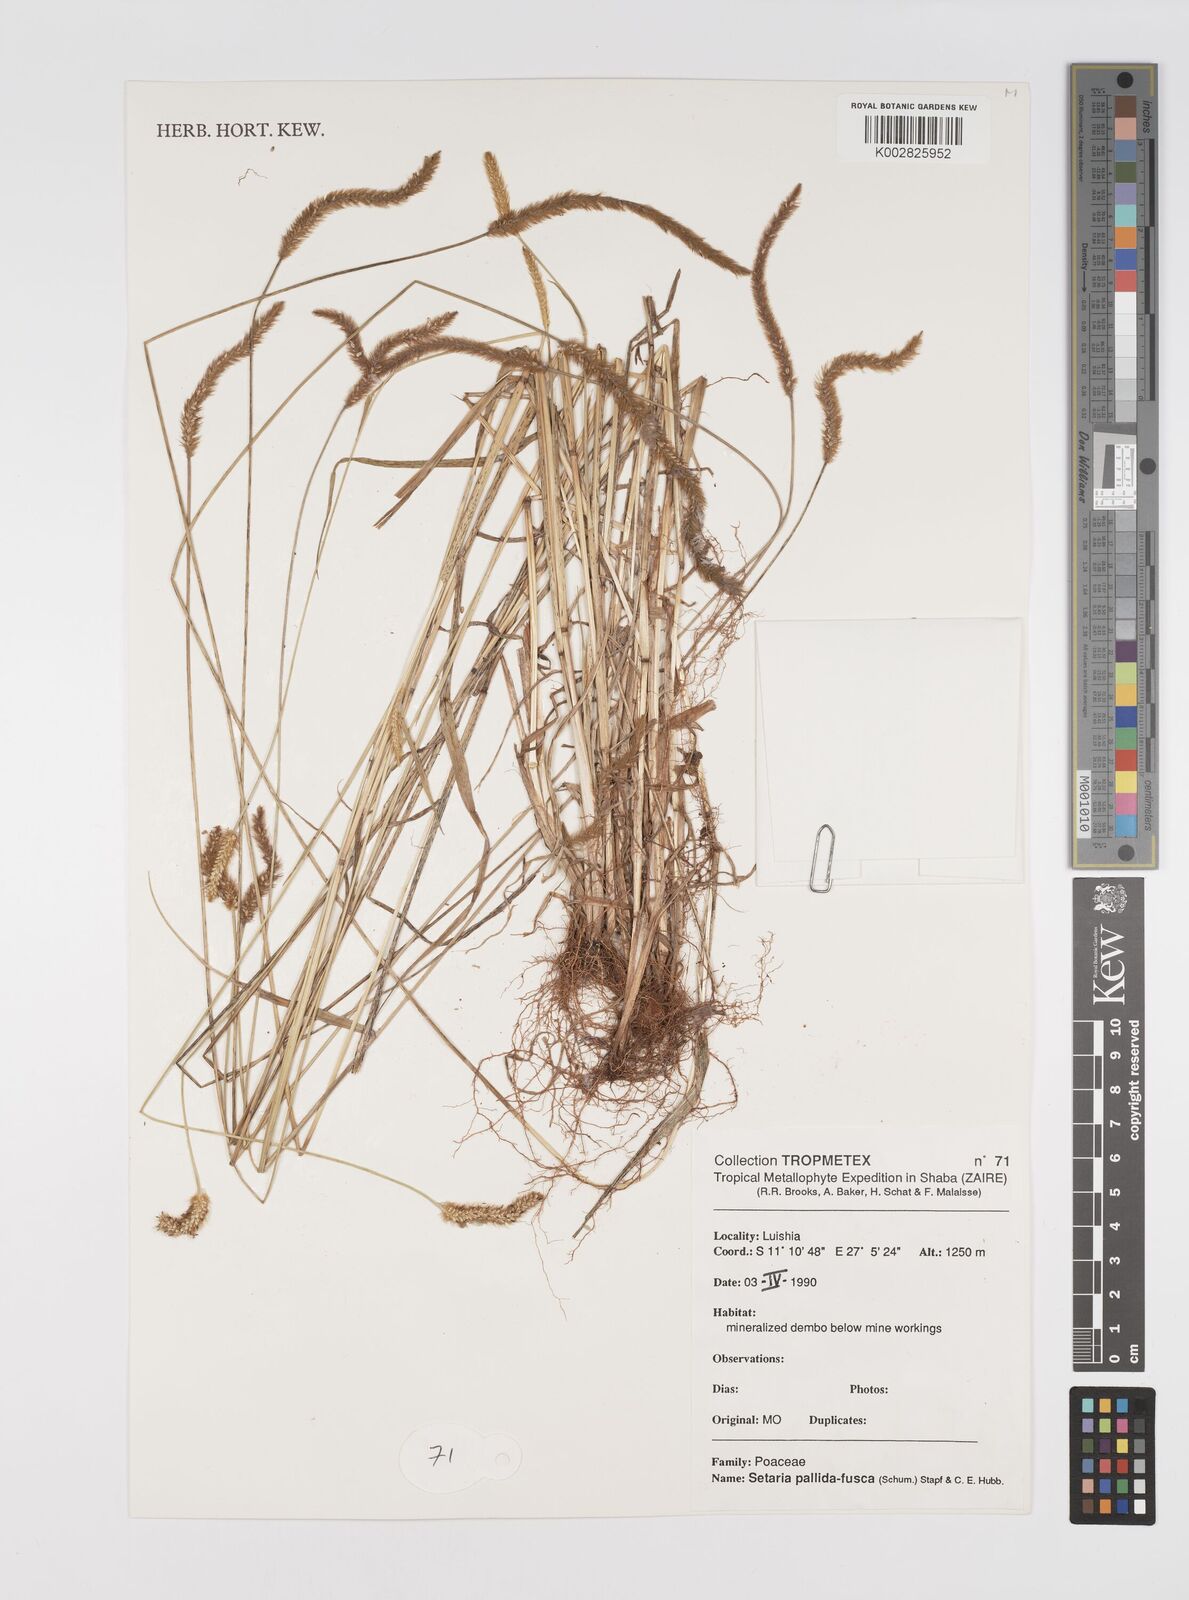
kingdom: Plantae
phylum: Tracheophyta
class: Liliopsida
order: Poales
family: Poaceae
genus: Setaria
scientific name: Setaria pumila
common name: Yellow bristle-grass
